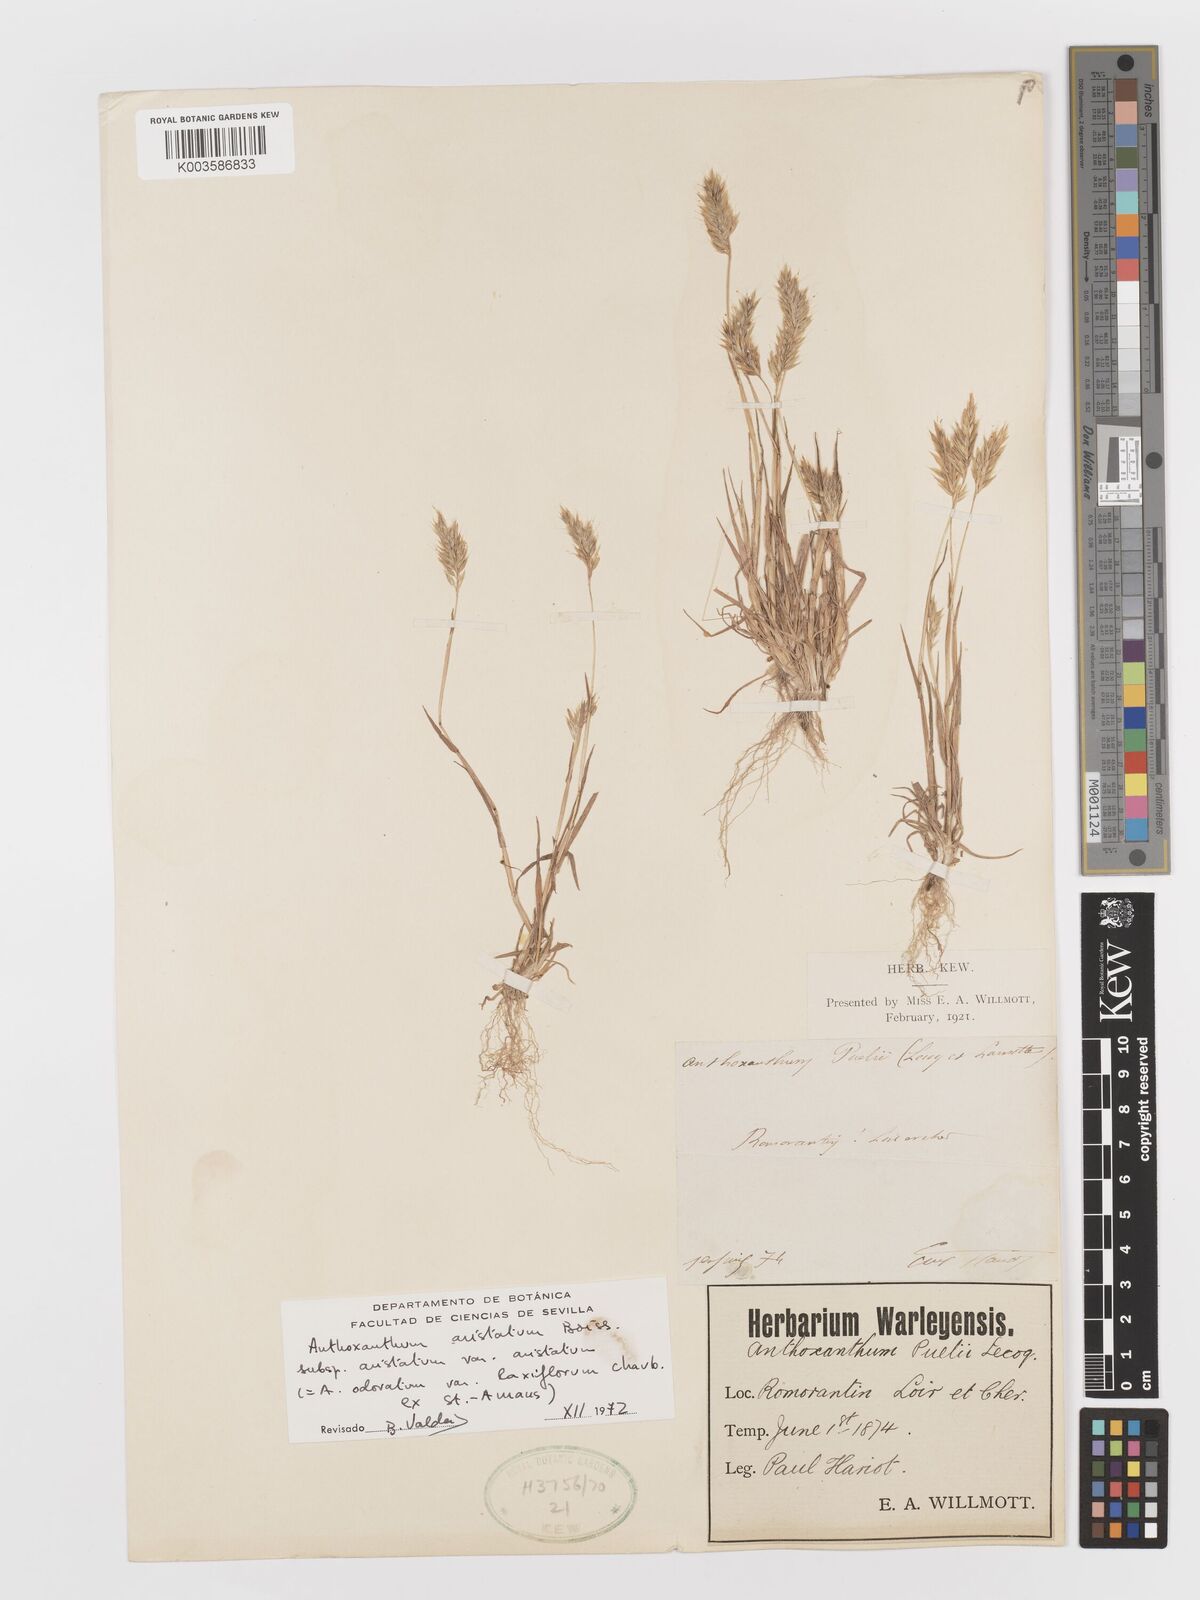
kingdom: Plantae
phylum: Tracheophyta
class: Liliopsida
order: Poales
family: Poaceae
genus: Anthoxanthum
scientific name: Anthoxanthum
